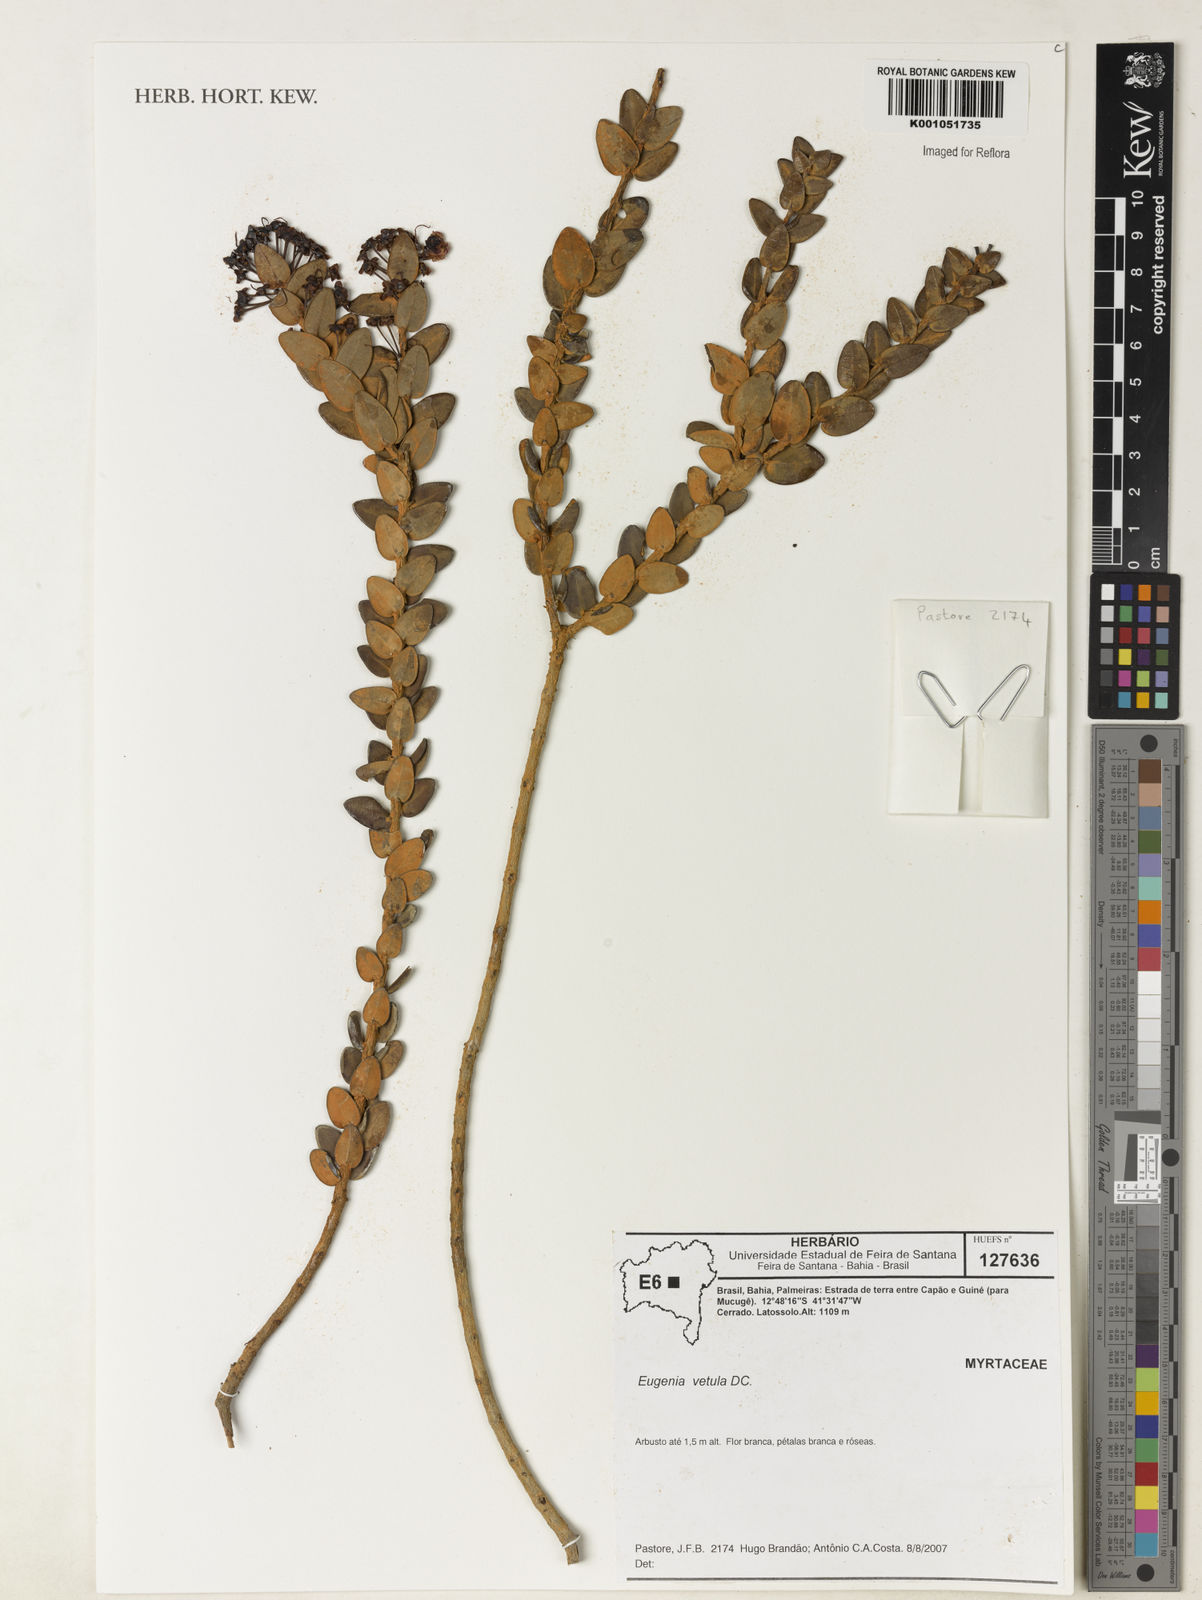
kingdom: Plantae
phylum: Tracheophyta
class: Magnoliopsida
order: Myrtales
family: Myrtaceae
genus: Eugenia
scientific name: Eugenia vetula
